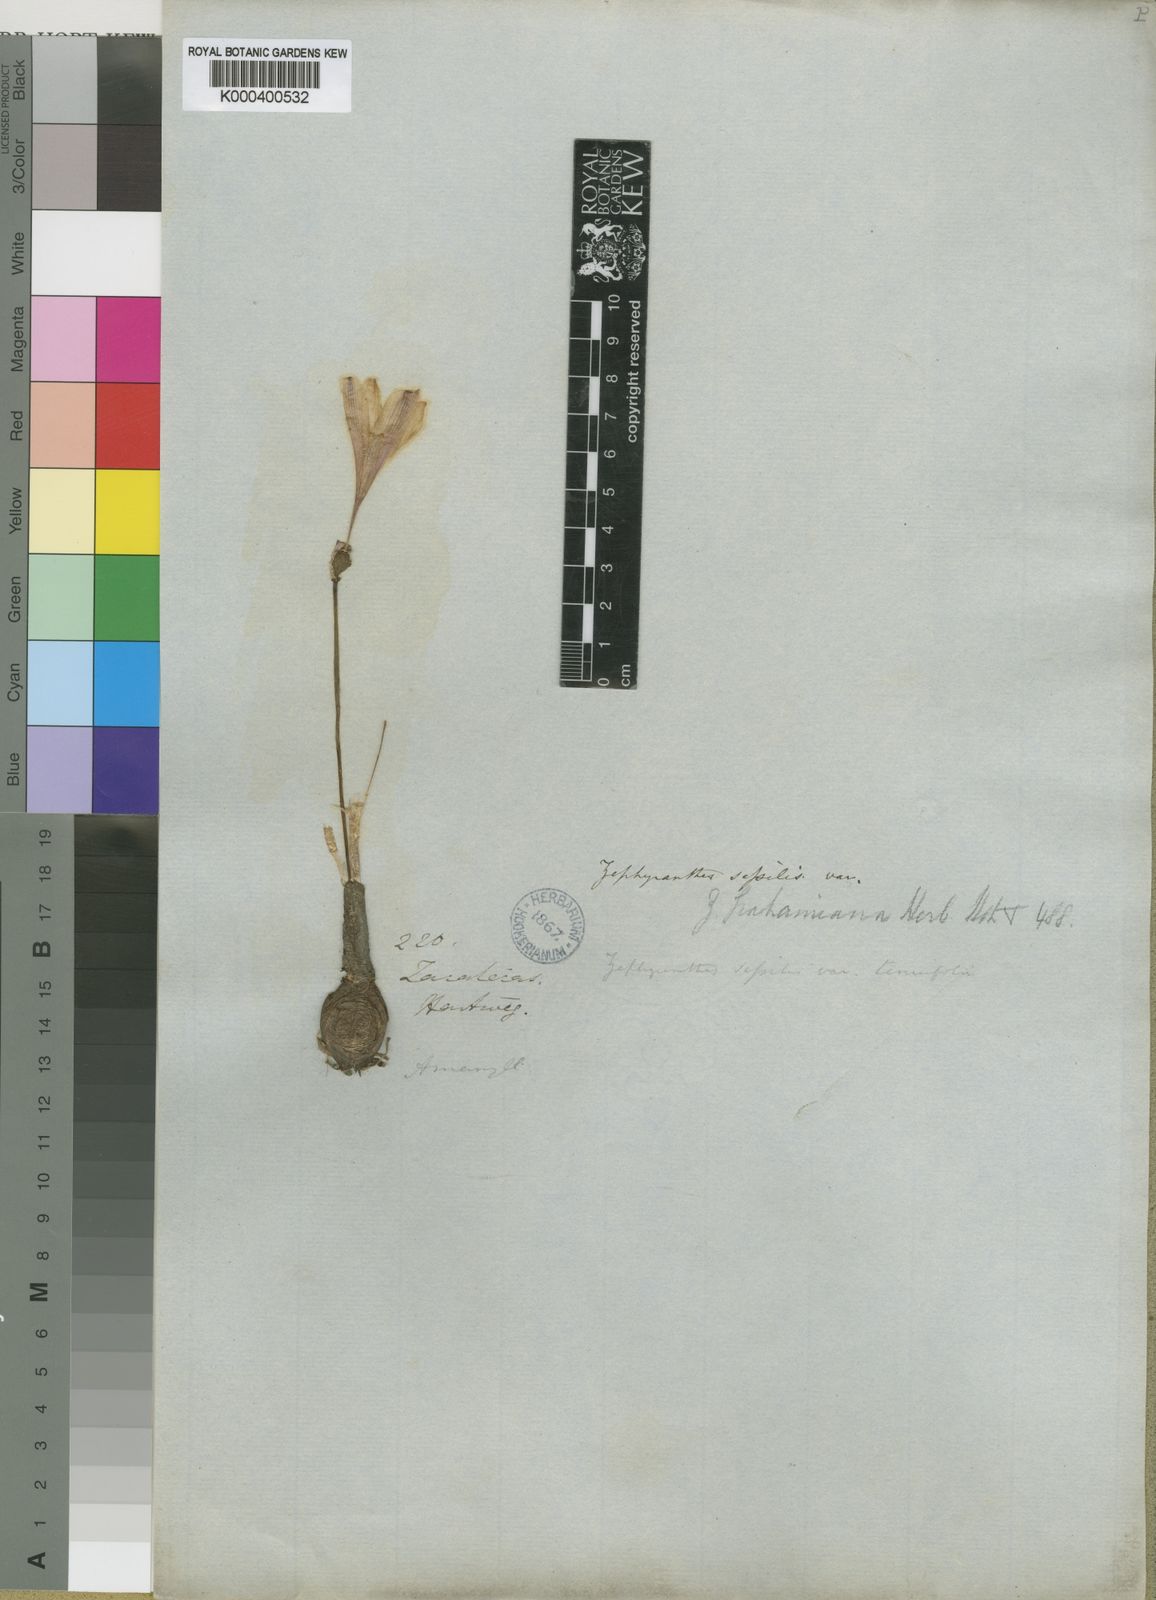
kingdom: Plantae
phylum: Tracheophyta
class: Liliopsida
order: Asparagales
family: Amaryllidaceae
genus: Zephyranthes
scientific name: Zephyranthes minuta
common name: Pink rain lily
